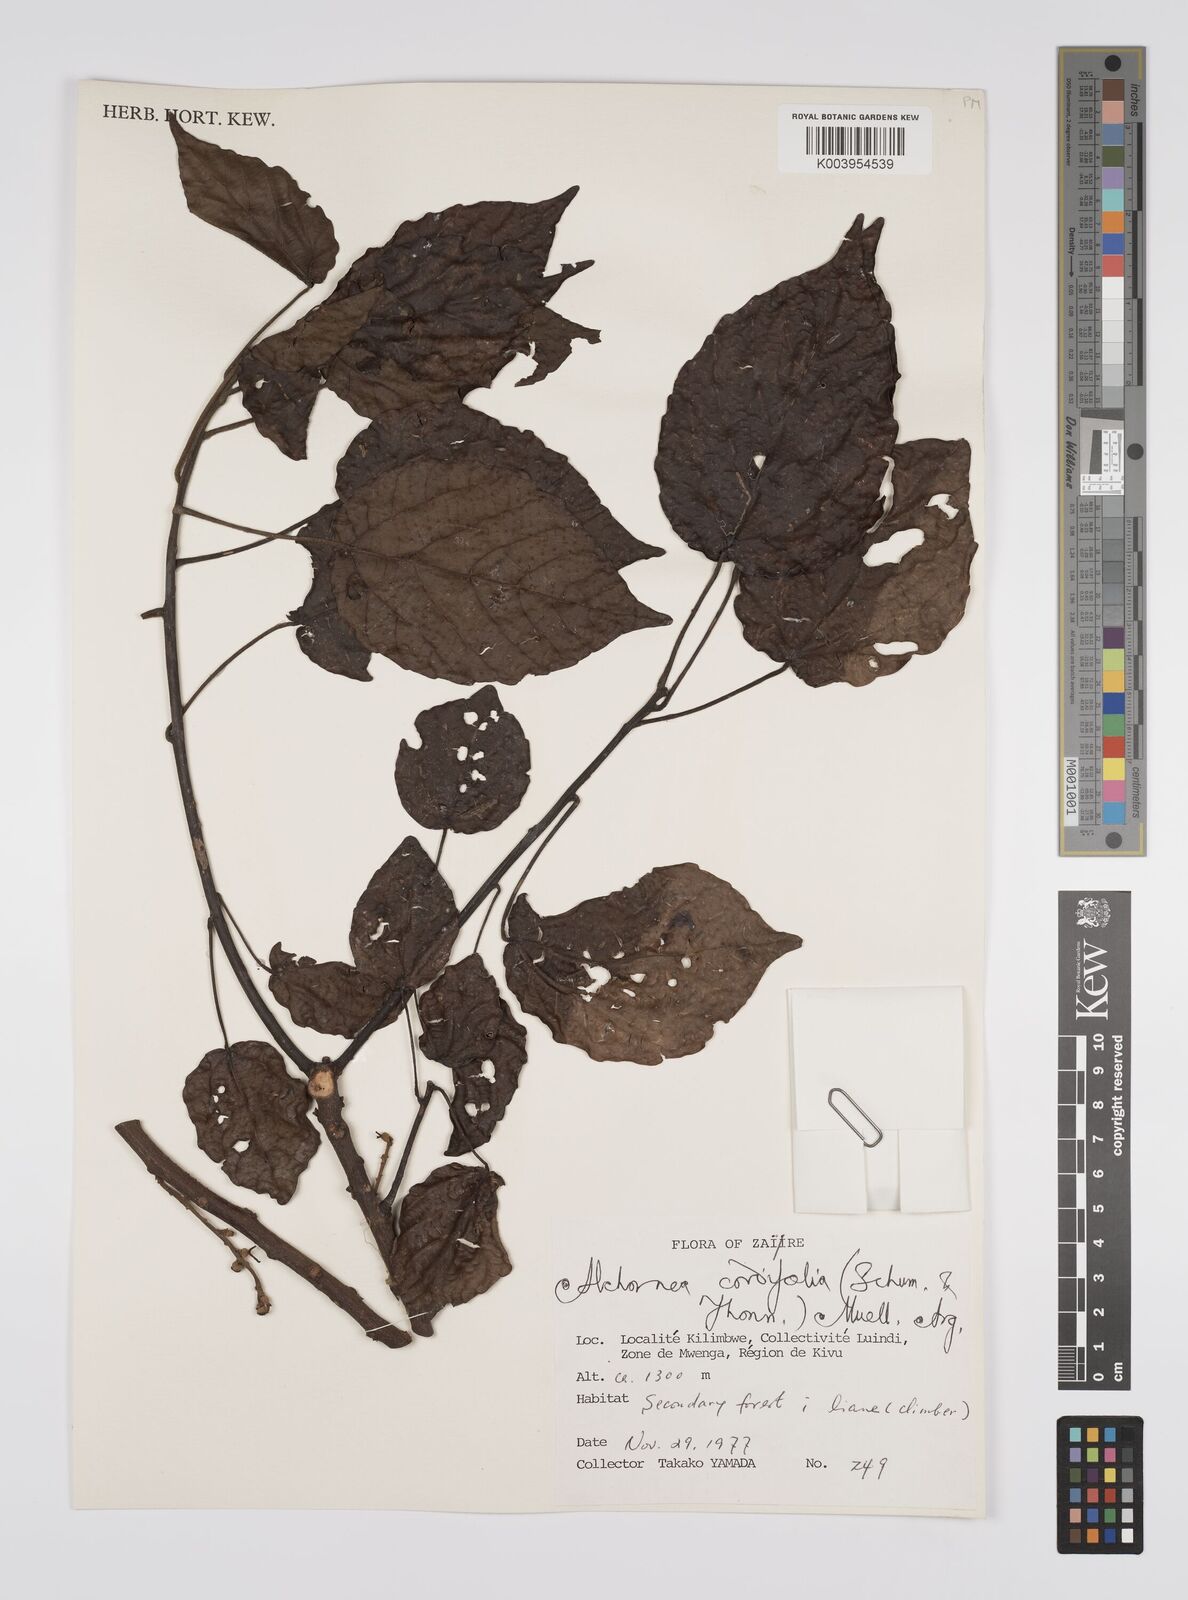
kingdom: Plantae
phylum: Tracheophyta
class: Magnoliopsida
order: Malpighiales
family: Euphorbiaceae
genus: Alchornea
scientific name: Alchornea cordifolia
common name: Christmasbush
